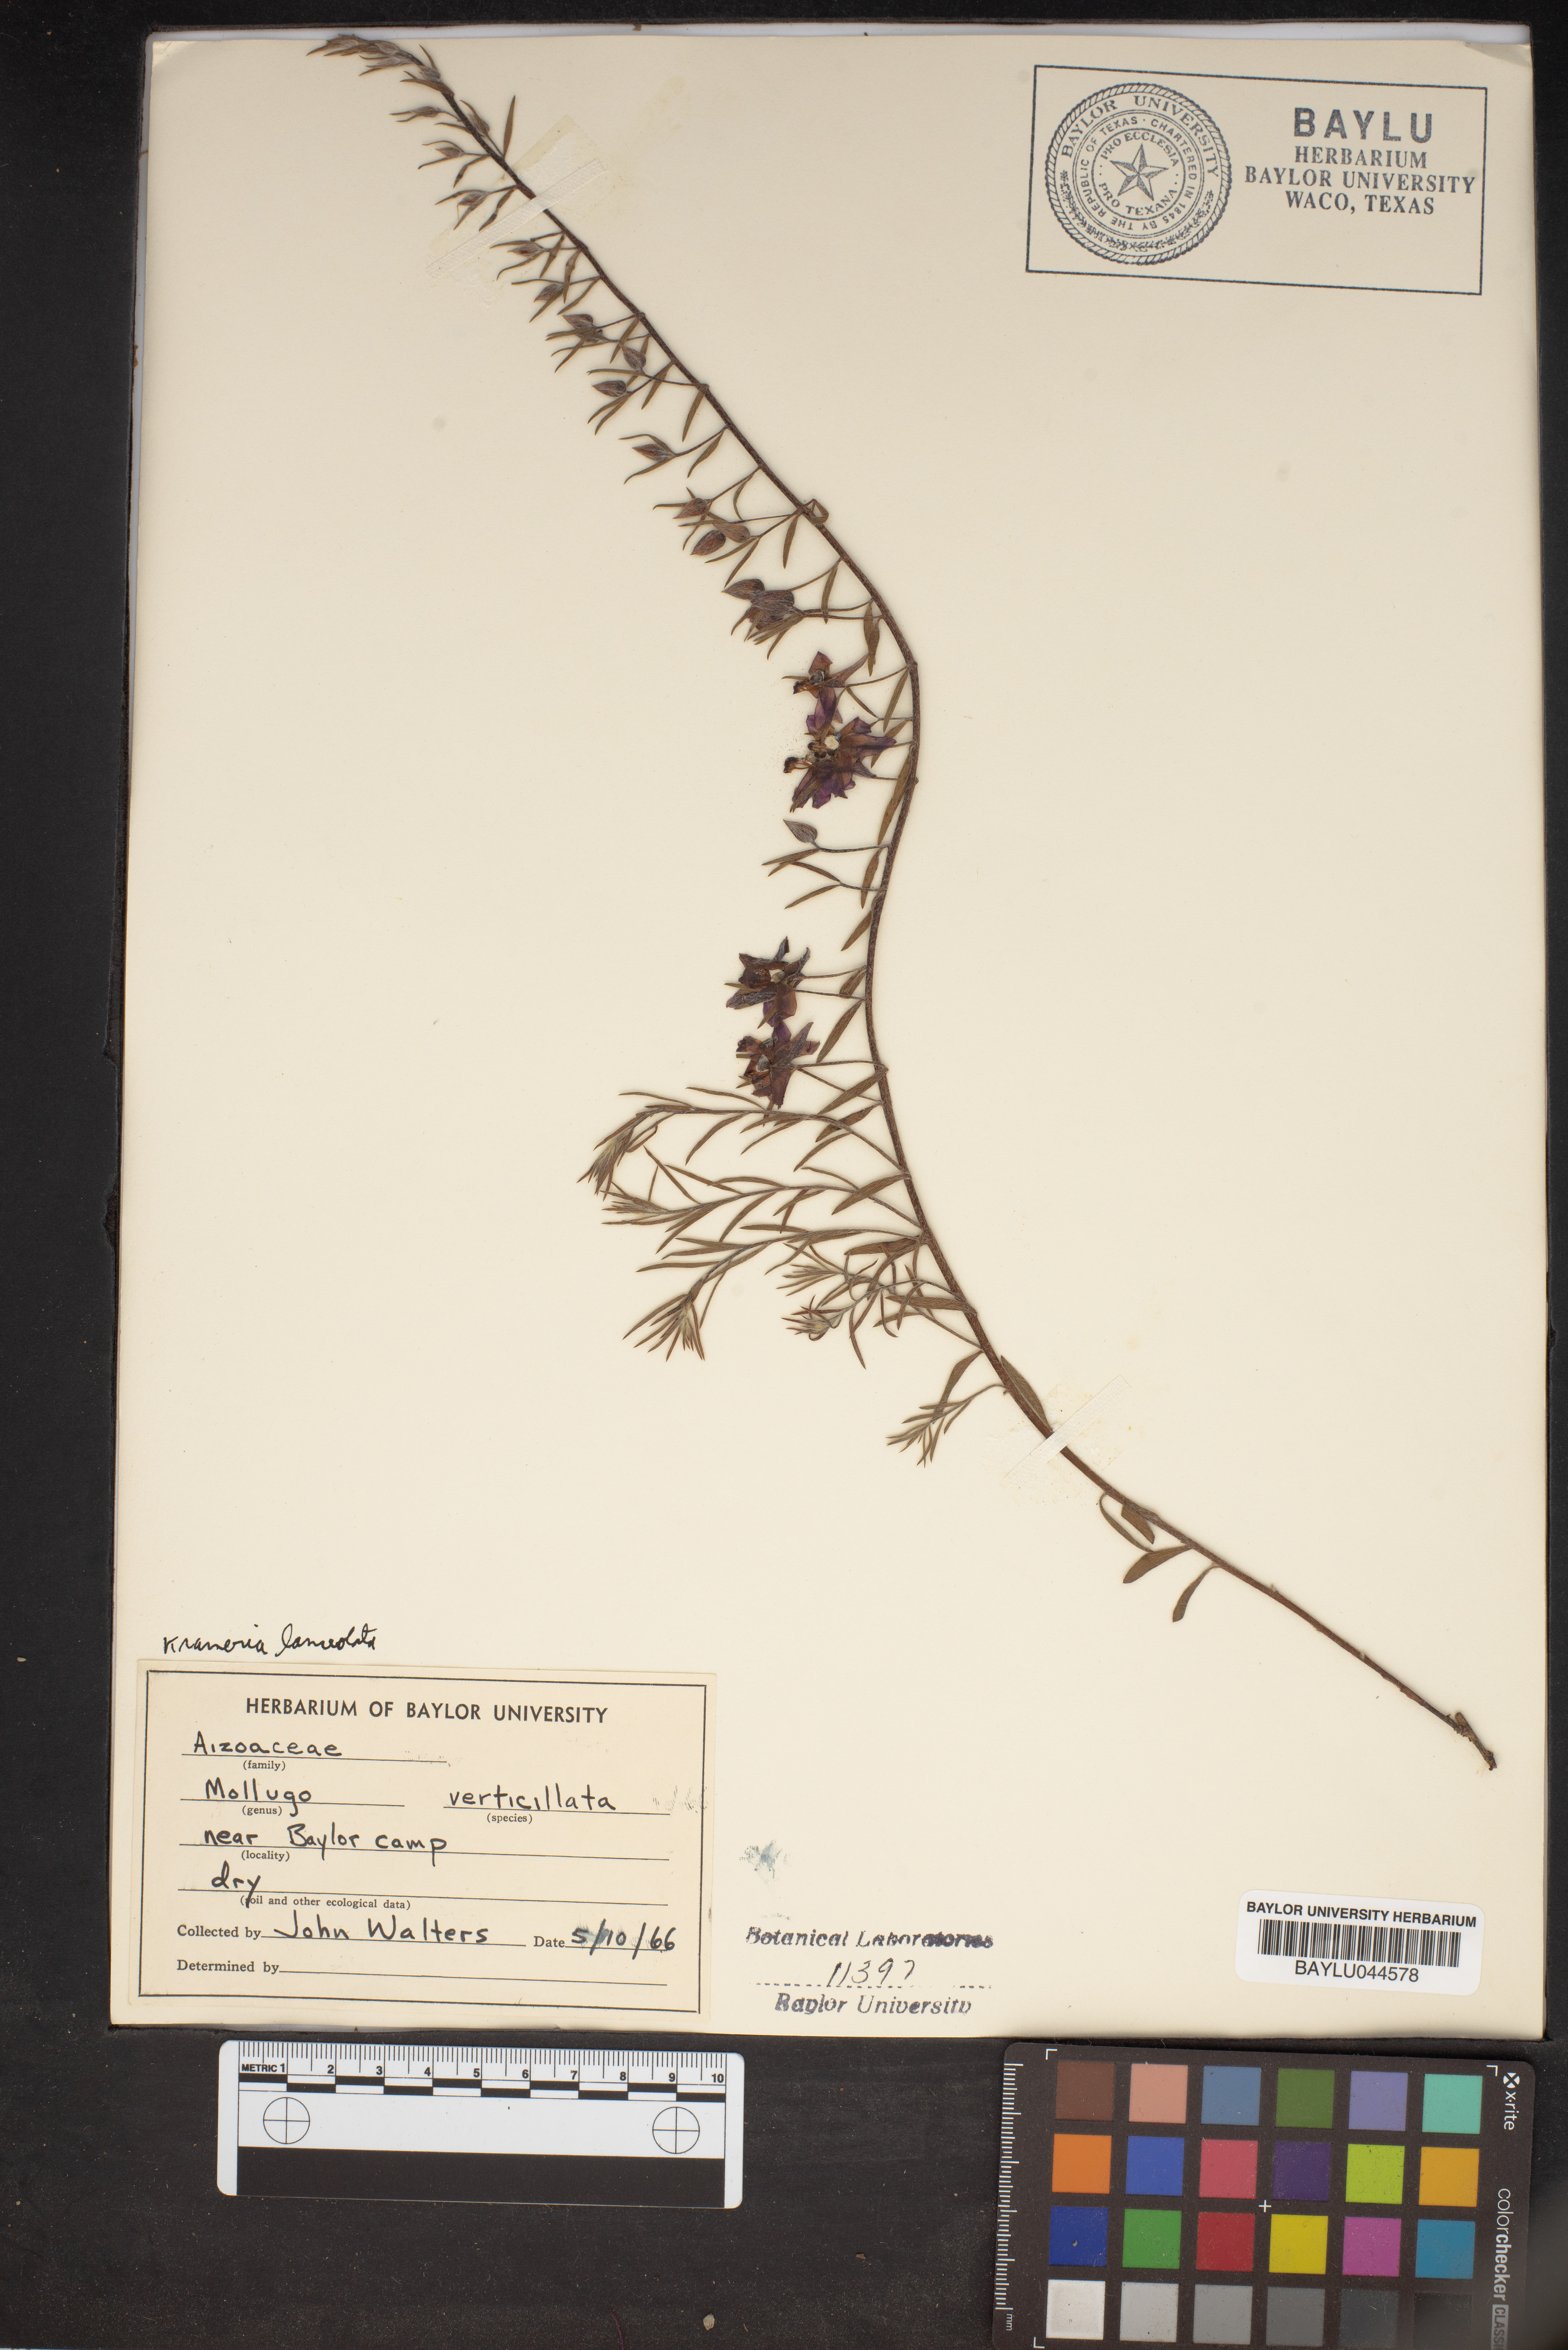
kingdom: Plantae
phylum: Tracheophyta
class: Magnoliopsida
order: Caryophyllales
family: Molluginaceae
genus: Mollugo
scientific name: Mollugo verticillata
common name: Green carpetweed
